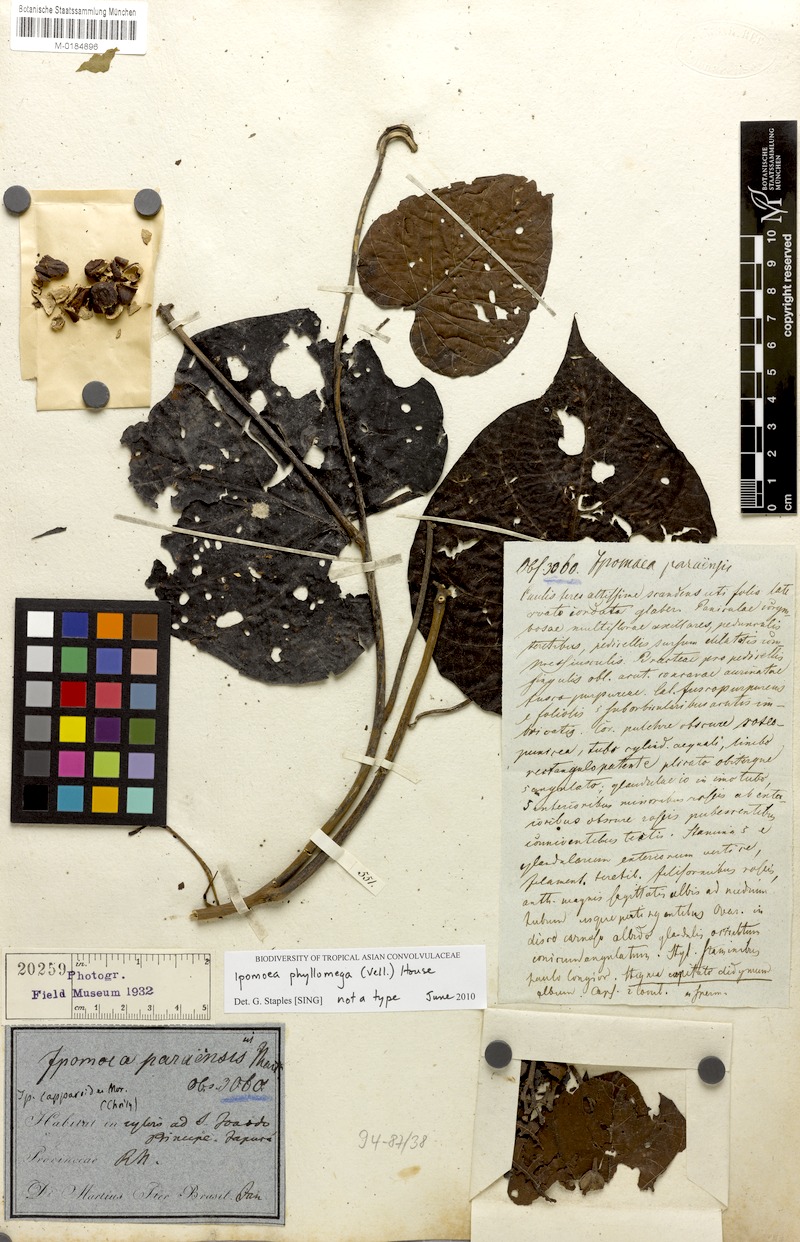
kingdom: Plantae
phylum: Tracheophyta
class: Magnoliopsida
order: Solanales
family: Convolvulaceae
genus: Ipomoea
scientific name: Ipomoea philomega
